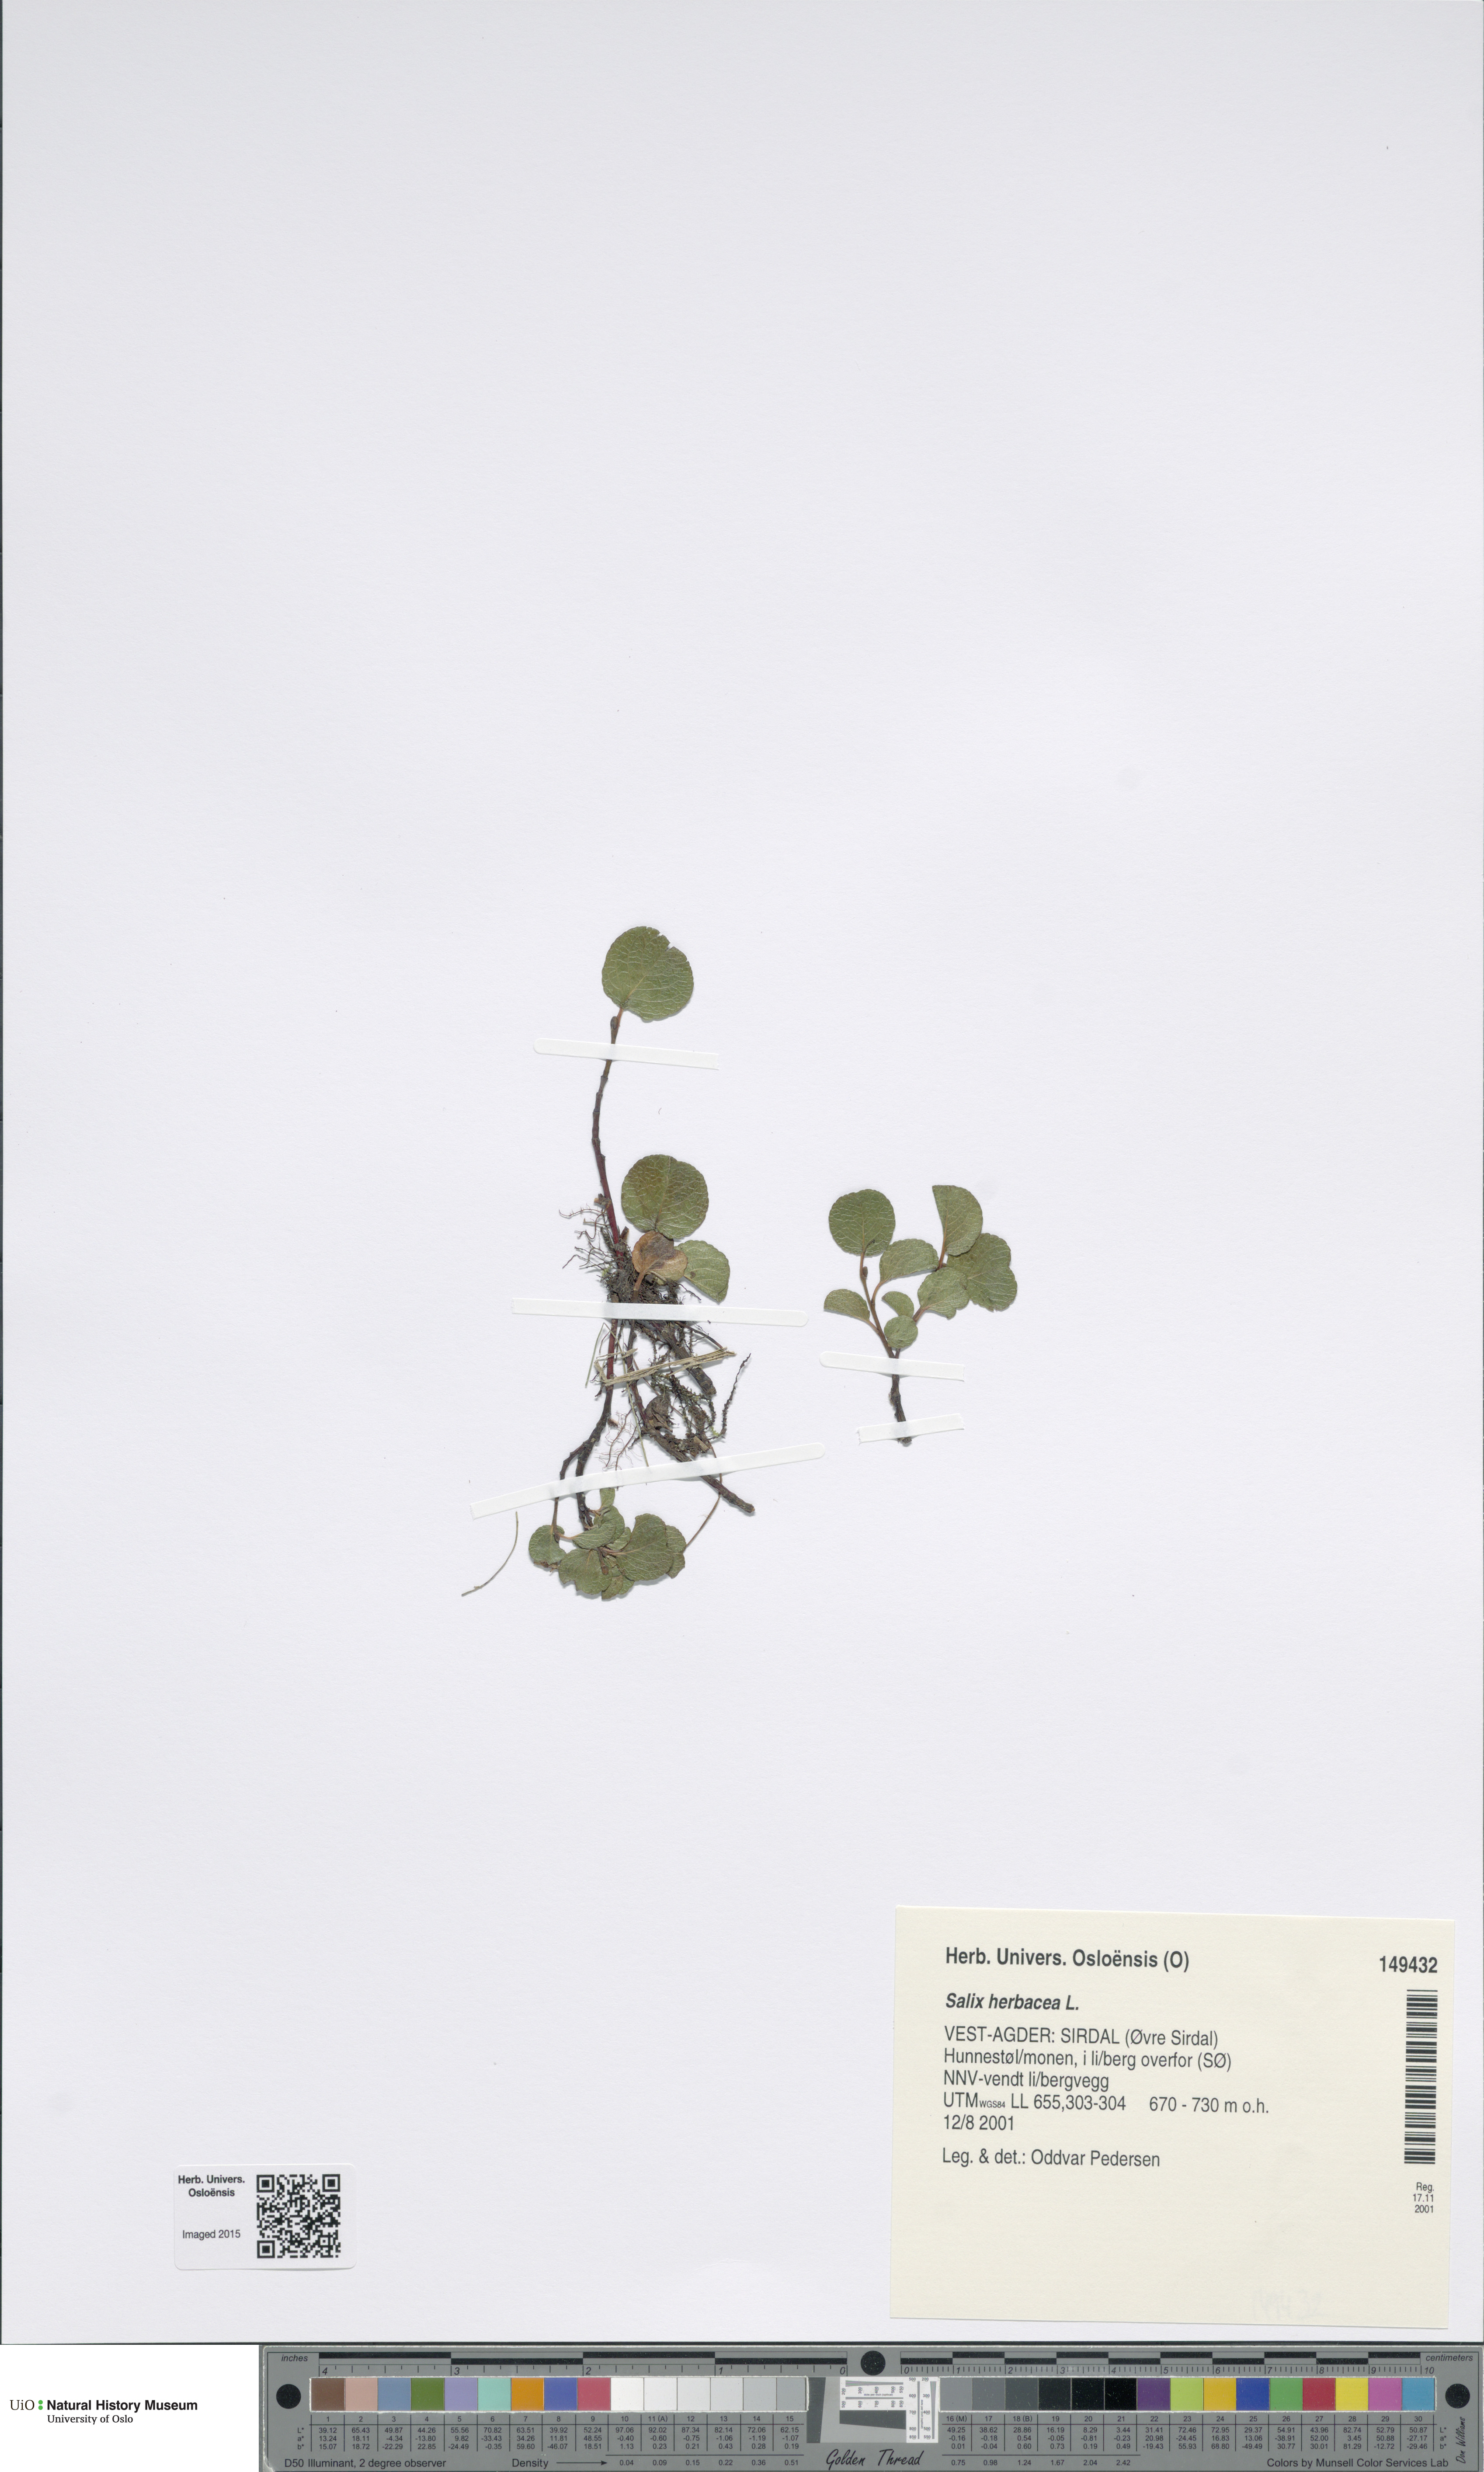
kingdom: Plantae
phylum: Tracheophyta
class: Magnoliopsida
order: Malpighiales
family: Salicaceae
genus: Salix
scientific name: Salix herbacea
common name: Dwarf willow
